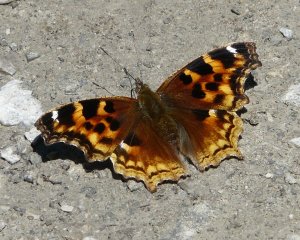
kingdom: Animalia
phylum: Arthropoda
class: Insecta
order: Lepidoptera
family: Nymphalidae
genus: Polygonia
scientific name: Polygonia vaualbum
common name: Compton Tortoiseshell
